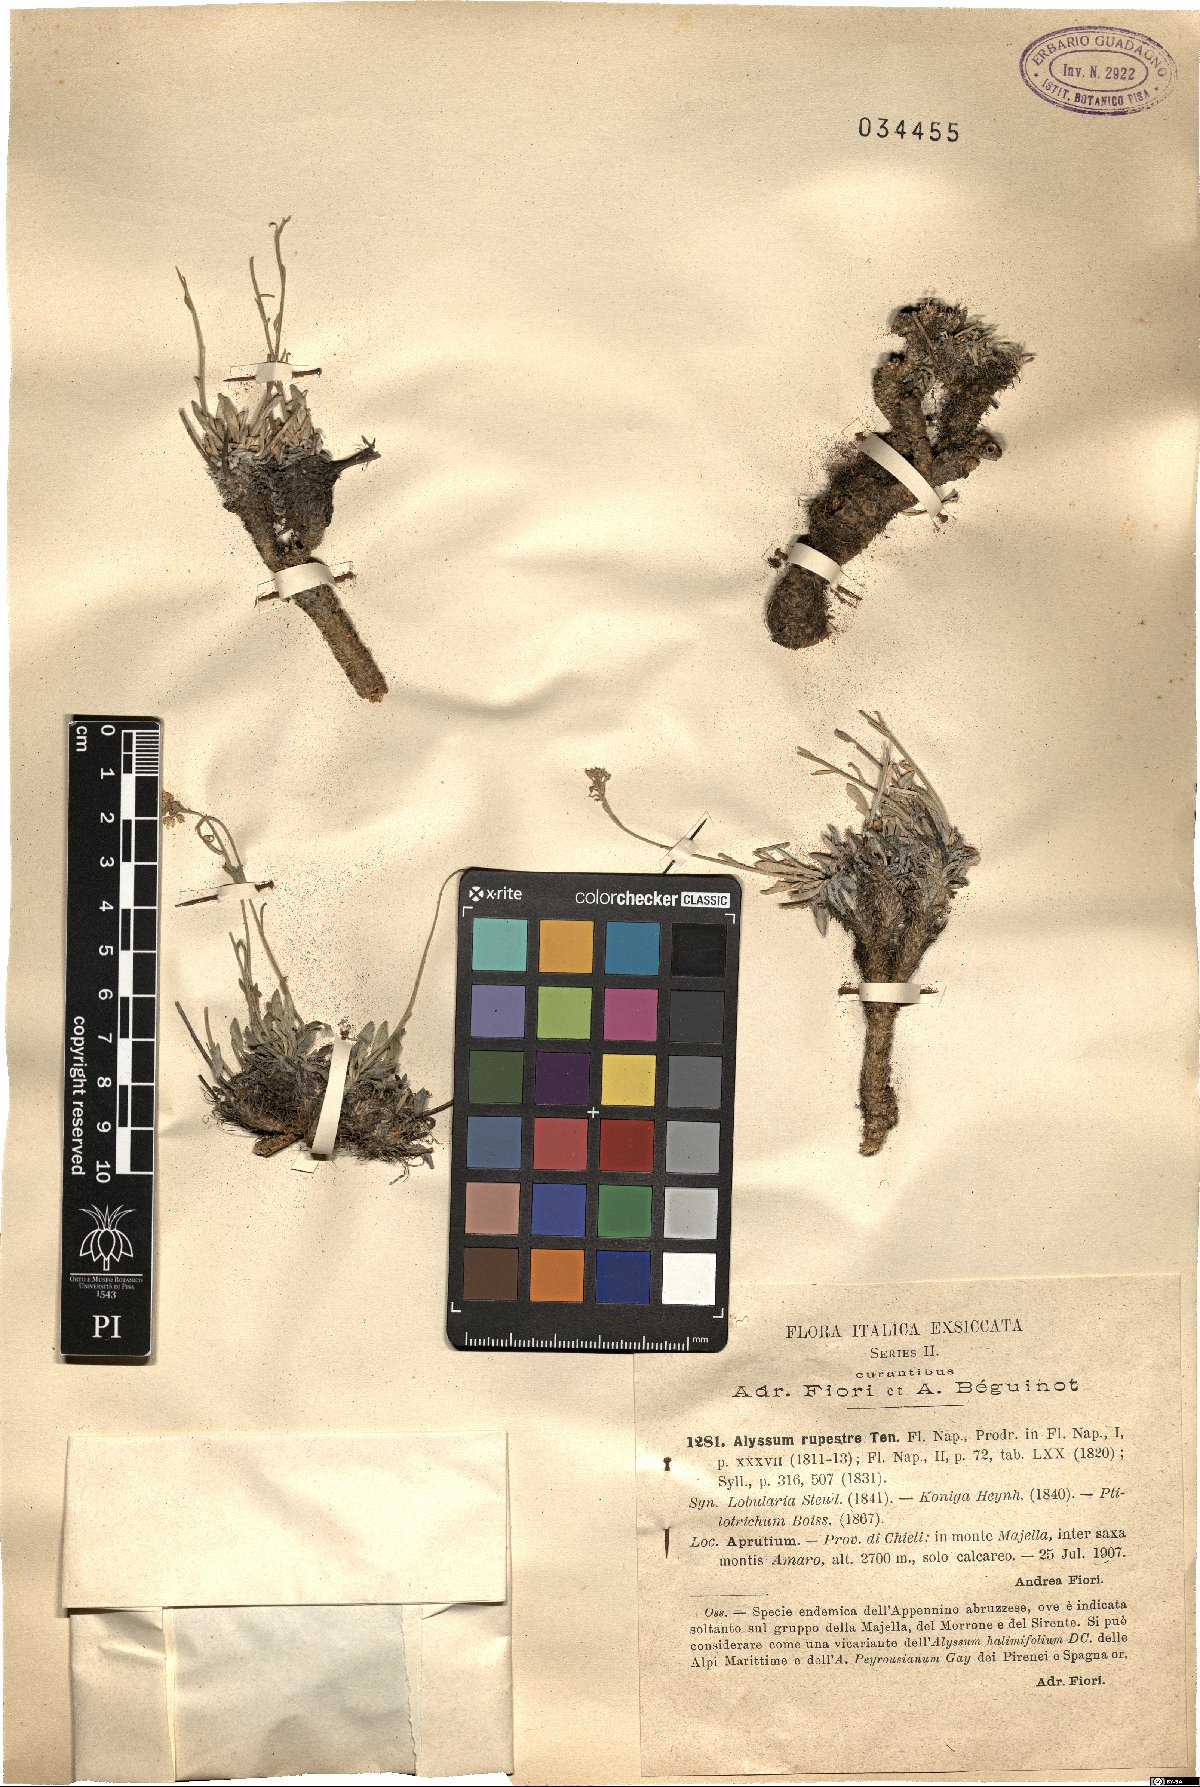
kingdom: Plantae
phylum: Tracheophyta
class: Magnoliopsida
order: Brassicales
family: Brassicaceae
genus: Phyllolepidium
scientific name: Phyllolepidium rupestre
